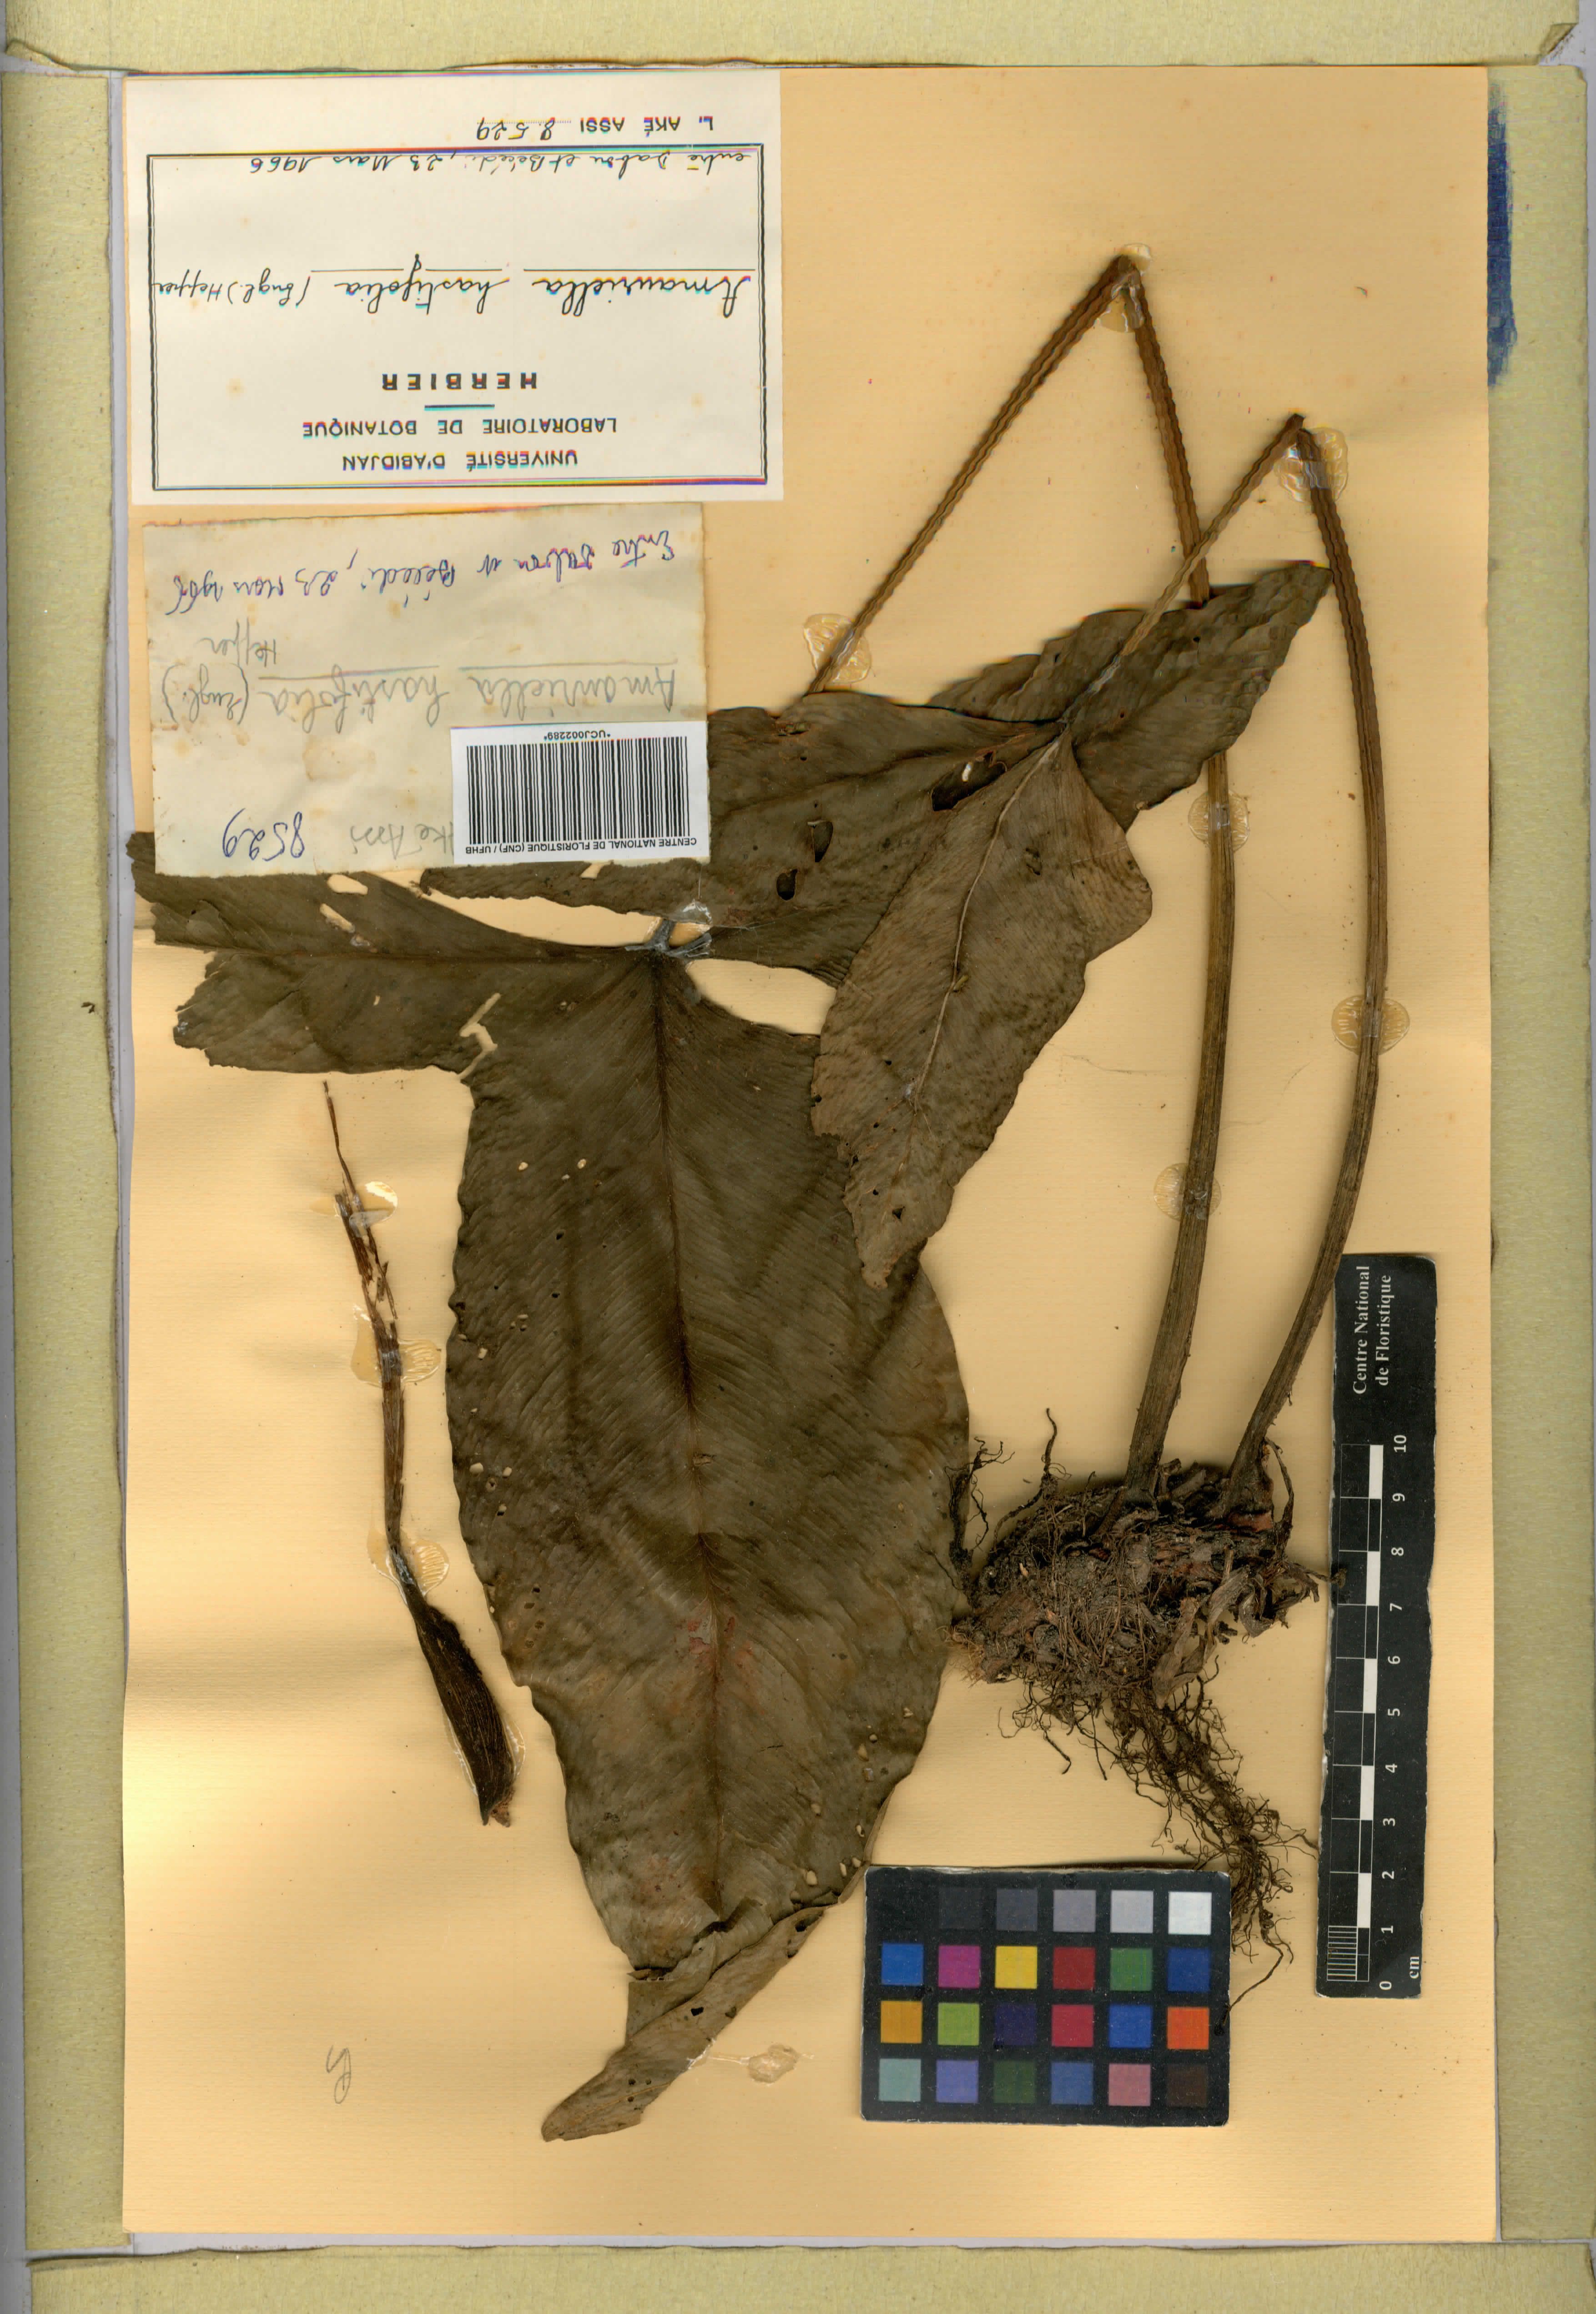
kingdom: Plantae
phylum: Tracheophyta
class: Liliopsida
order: Alismatales
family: Araceae
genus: Anubias
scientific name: Anubias hastifolia
